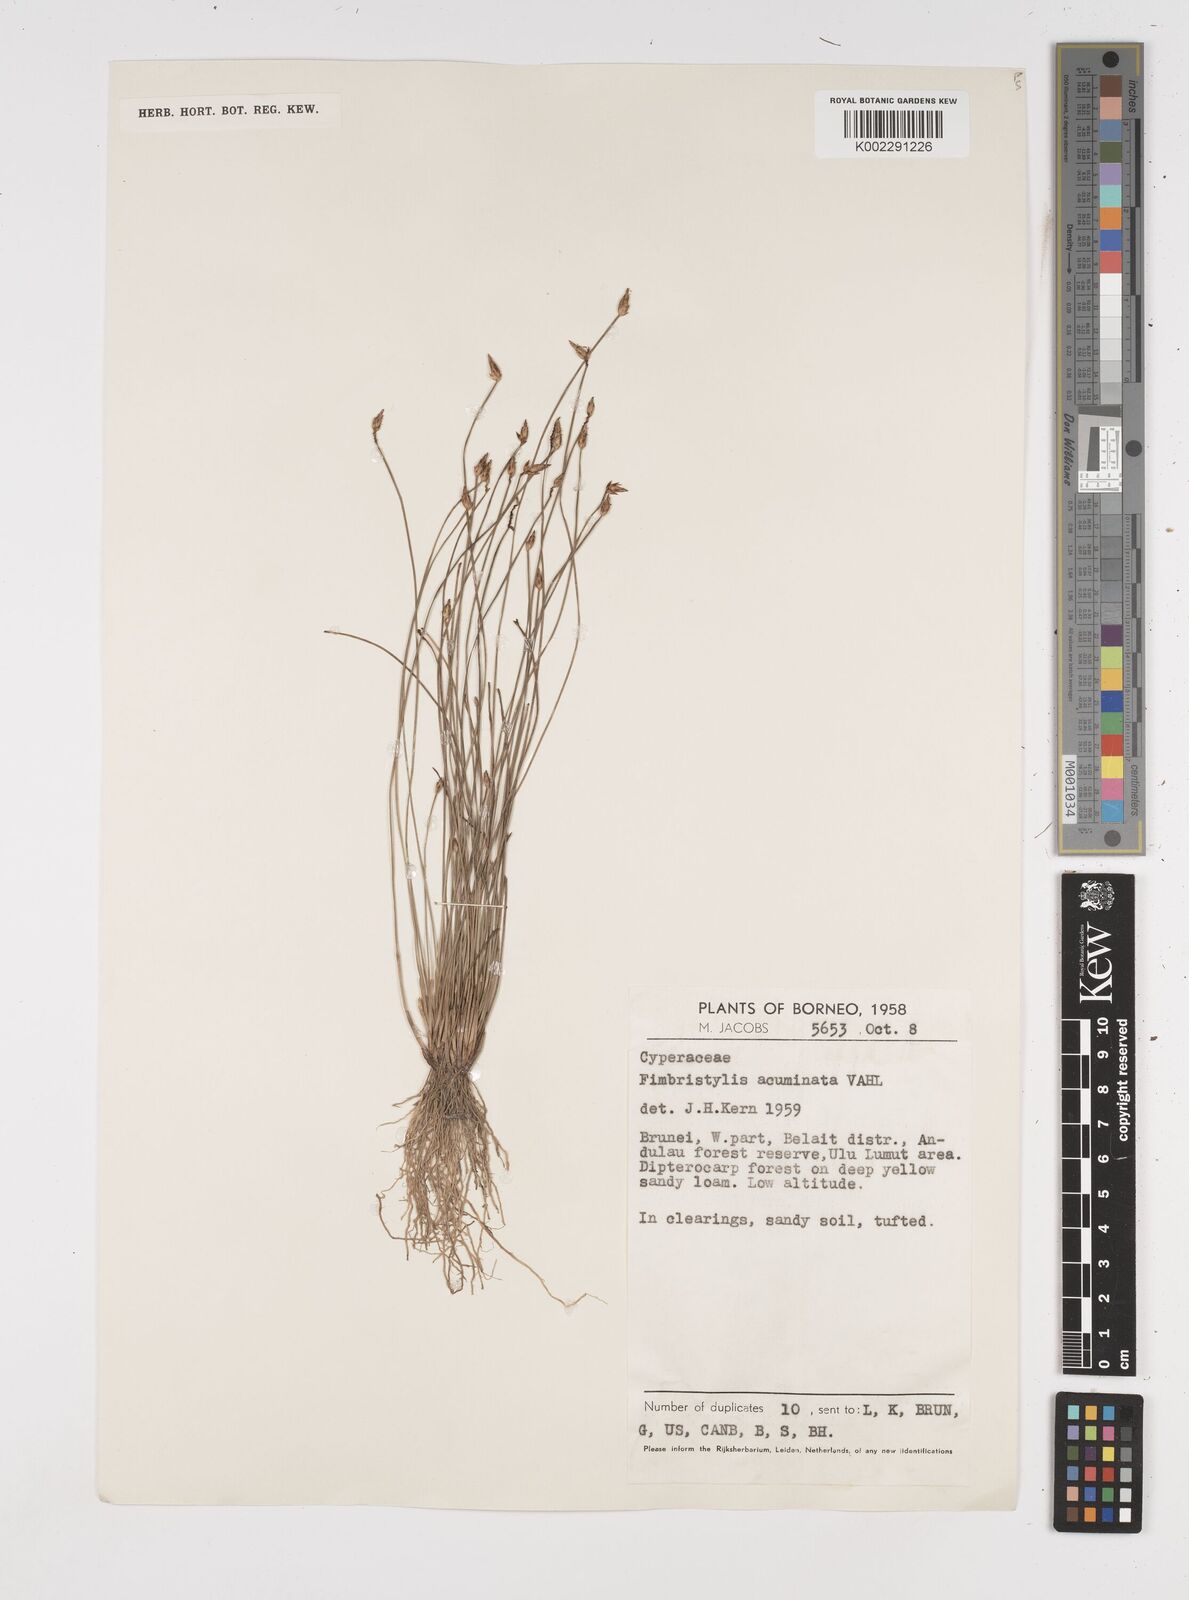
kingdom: Plantae
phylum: Tracheophyta
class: Liliopsida
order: Poales
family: Cyperaceae
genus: Fimbristylis
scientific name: Fimbristylis acuminata
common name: Pointed fimbristylis
